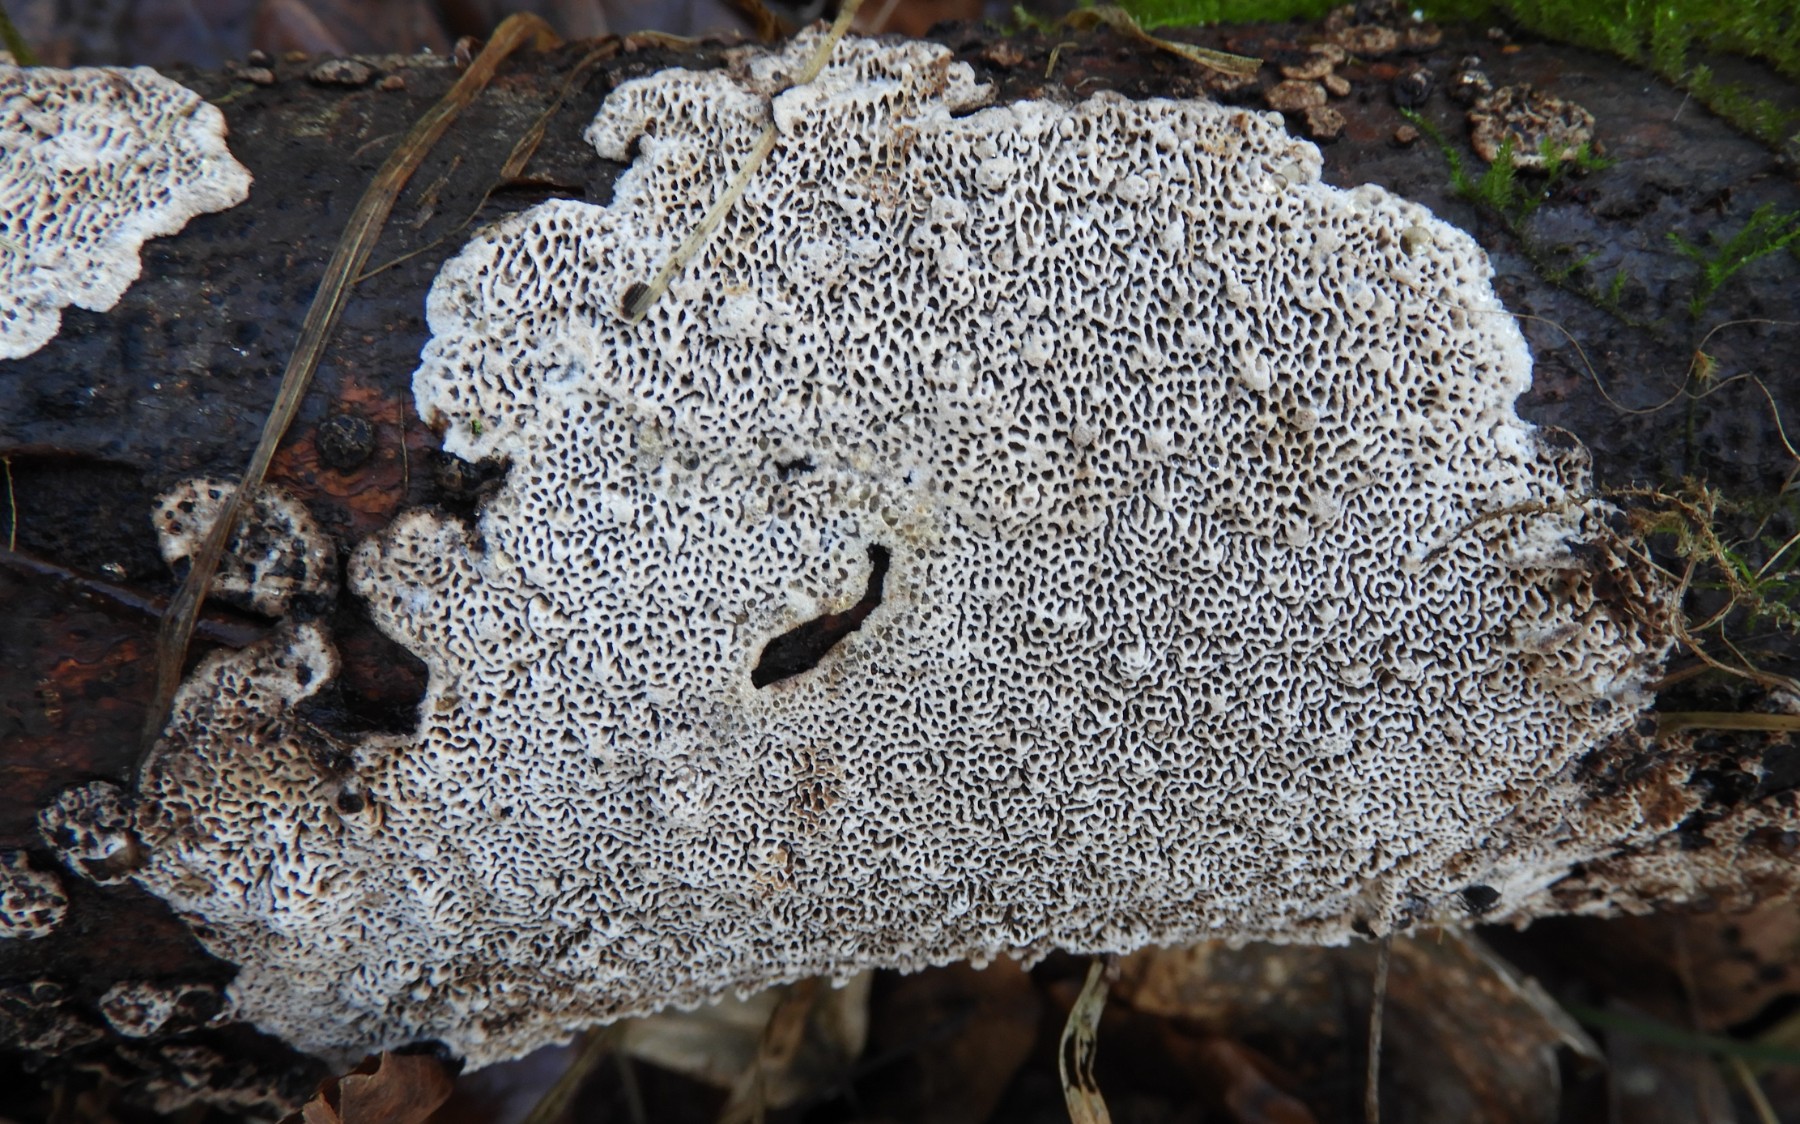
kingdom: Fungi
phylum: Basidiomycota
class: Agaricomycetes
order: Polyporales
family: Polyporaceae
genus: Podofomes
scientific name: Podofomes mollis
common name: blød begporesvamp
